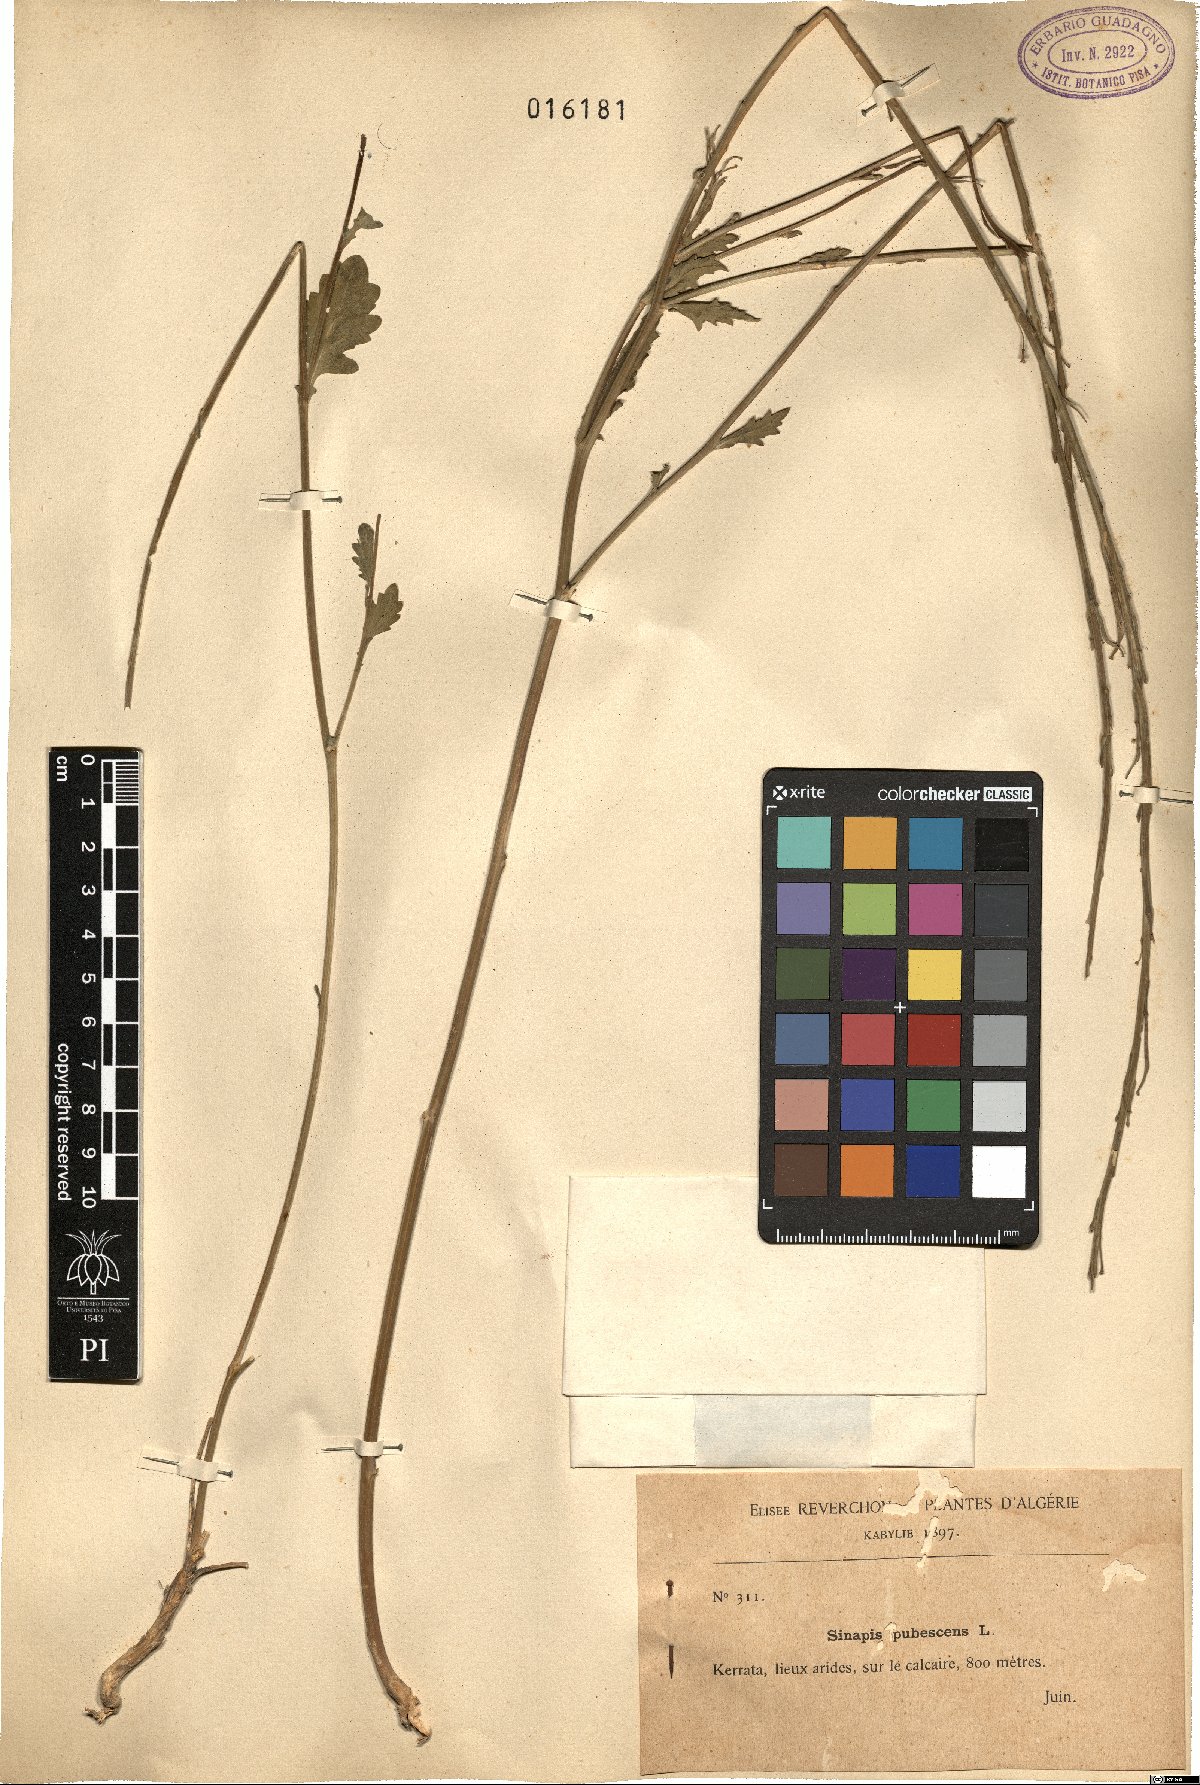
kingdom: Plantae
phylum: Tracheophyta
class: Magnoliopsida
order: Brassicales
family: Brassicaceae
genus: Sinapis
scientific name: Sinapis pubescens
